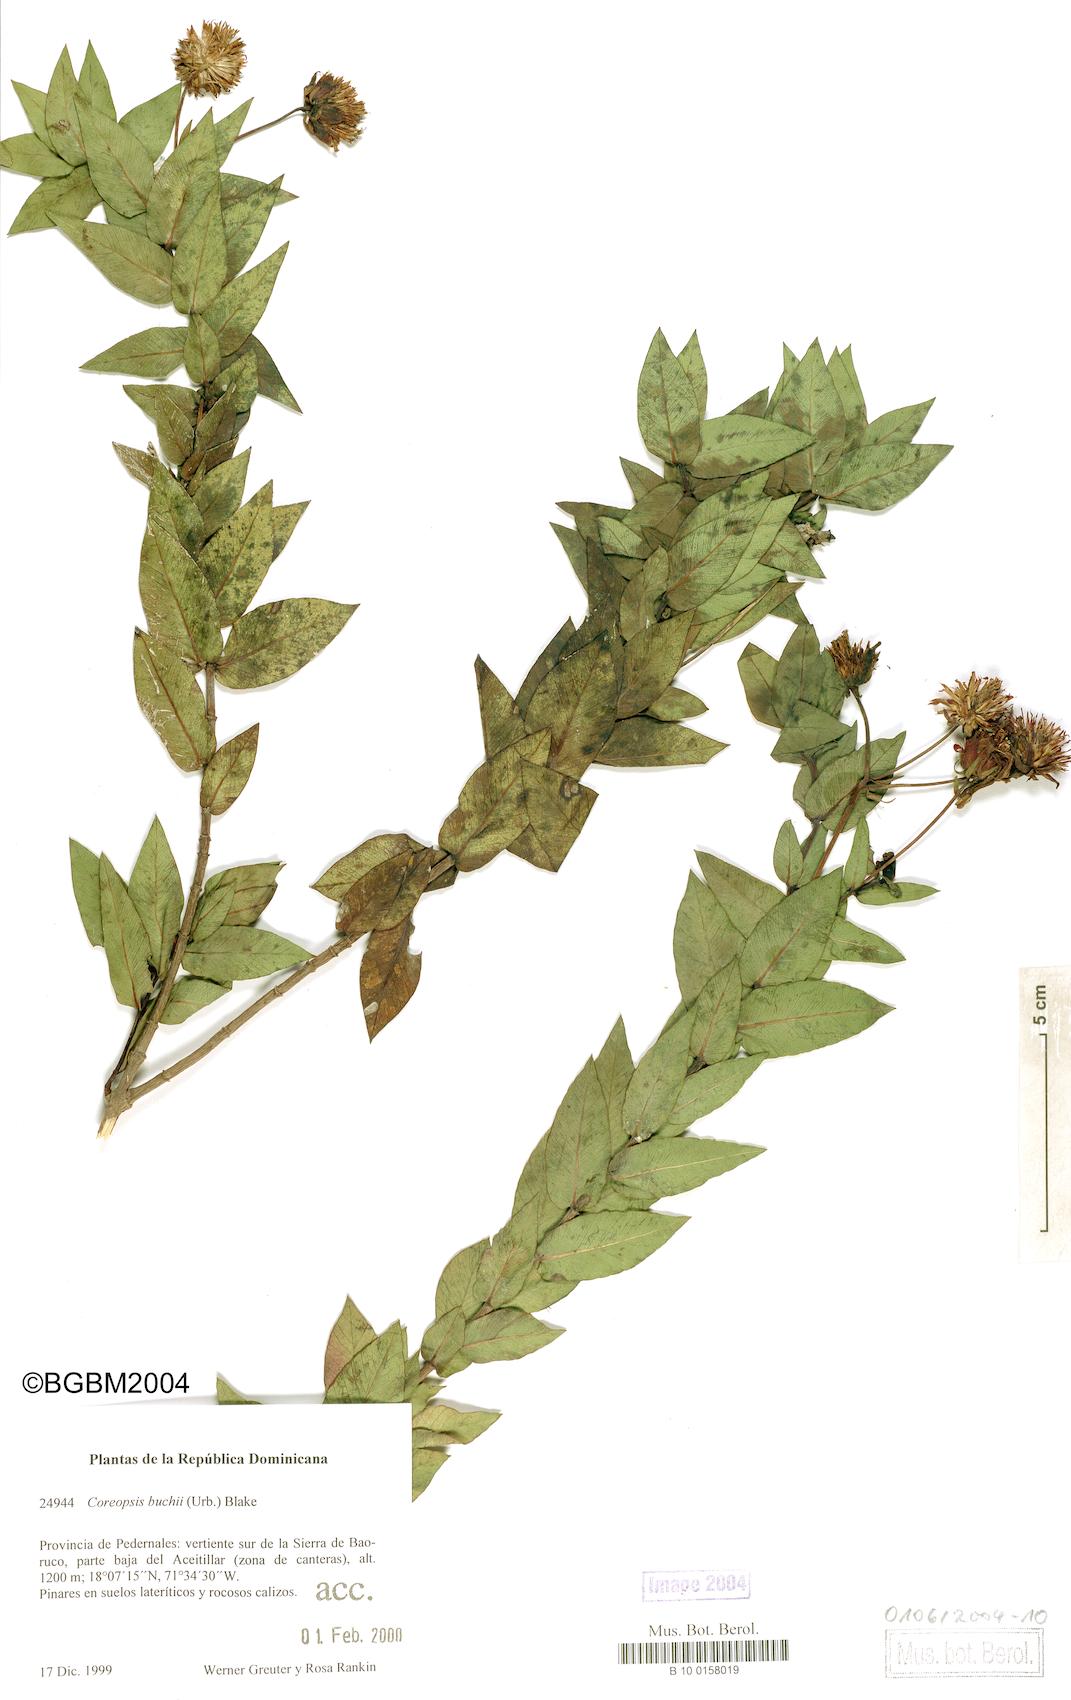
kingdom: Plantae
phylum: Tracheophyta
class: Magnoliopsida
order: Asterales
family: Asteraceae
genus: Coreopsis
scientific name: Coreopsis buchii
